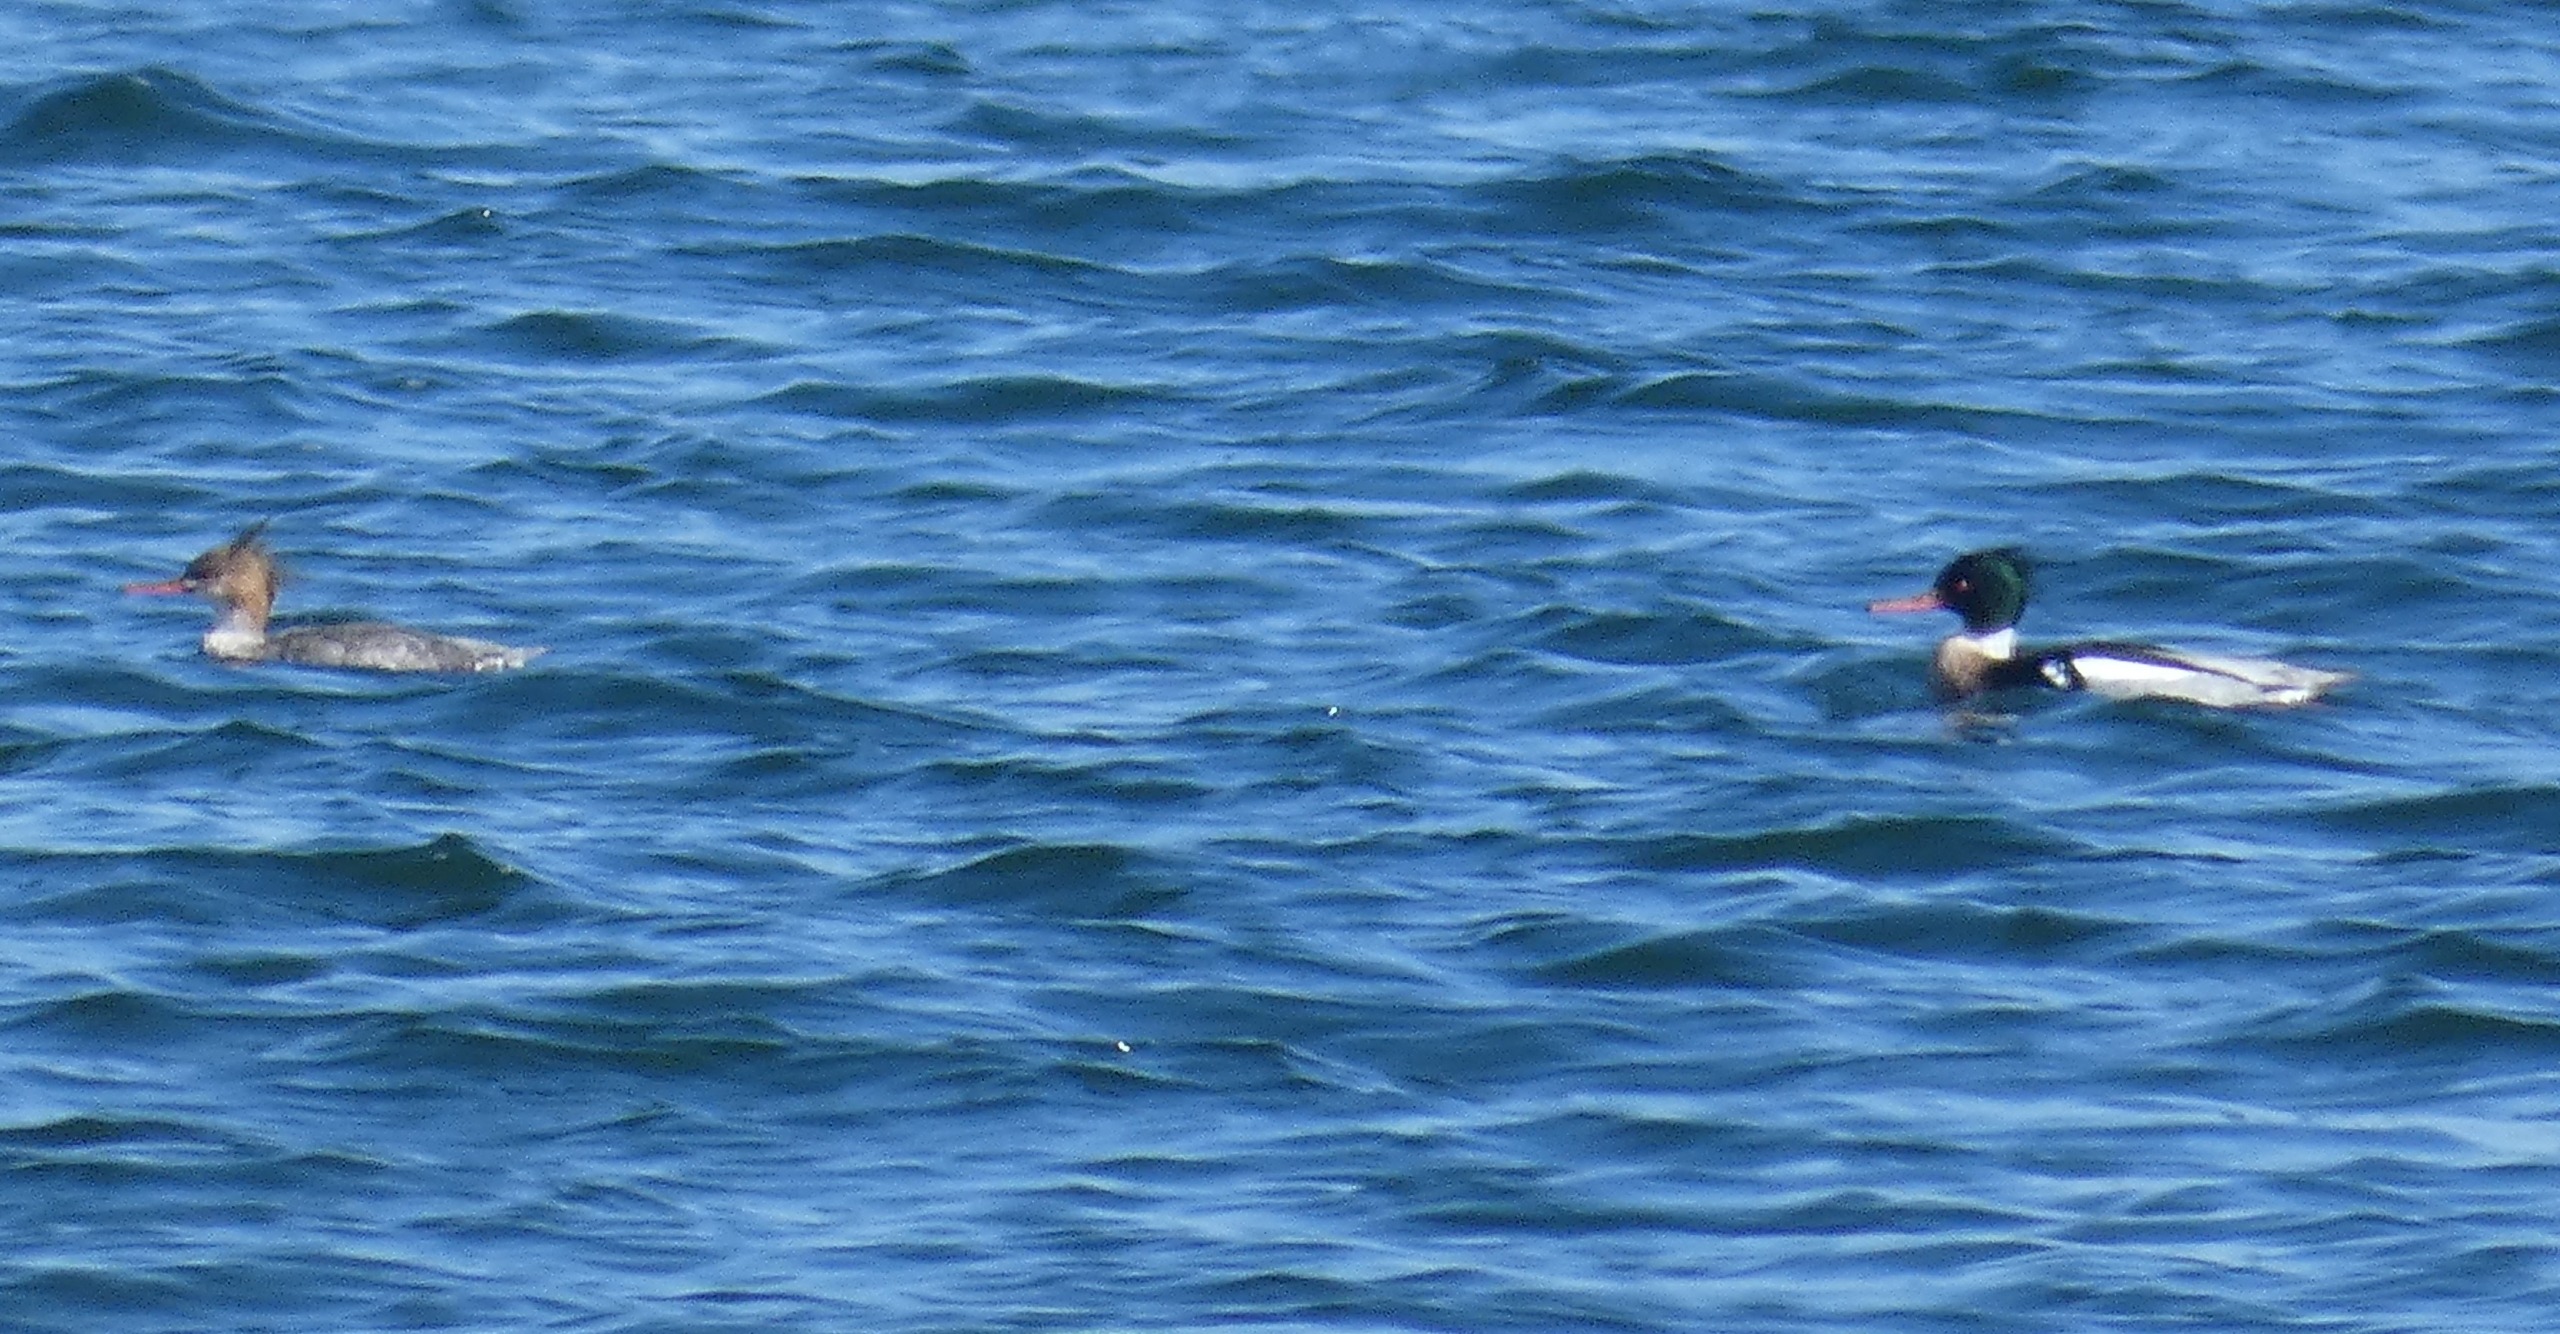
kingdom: Animalia
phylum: Chordata
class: Aves
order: Anseriformes
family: Anatidae
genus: Mergus
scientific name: Mergus serrator
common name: Toppet skallesluger
